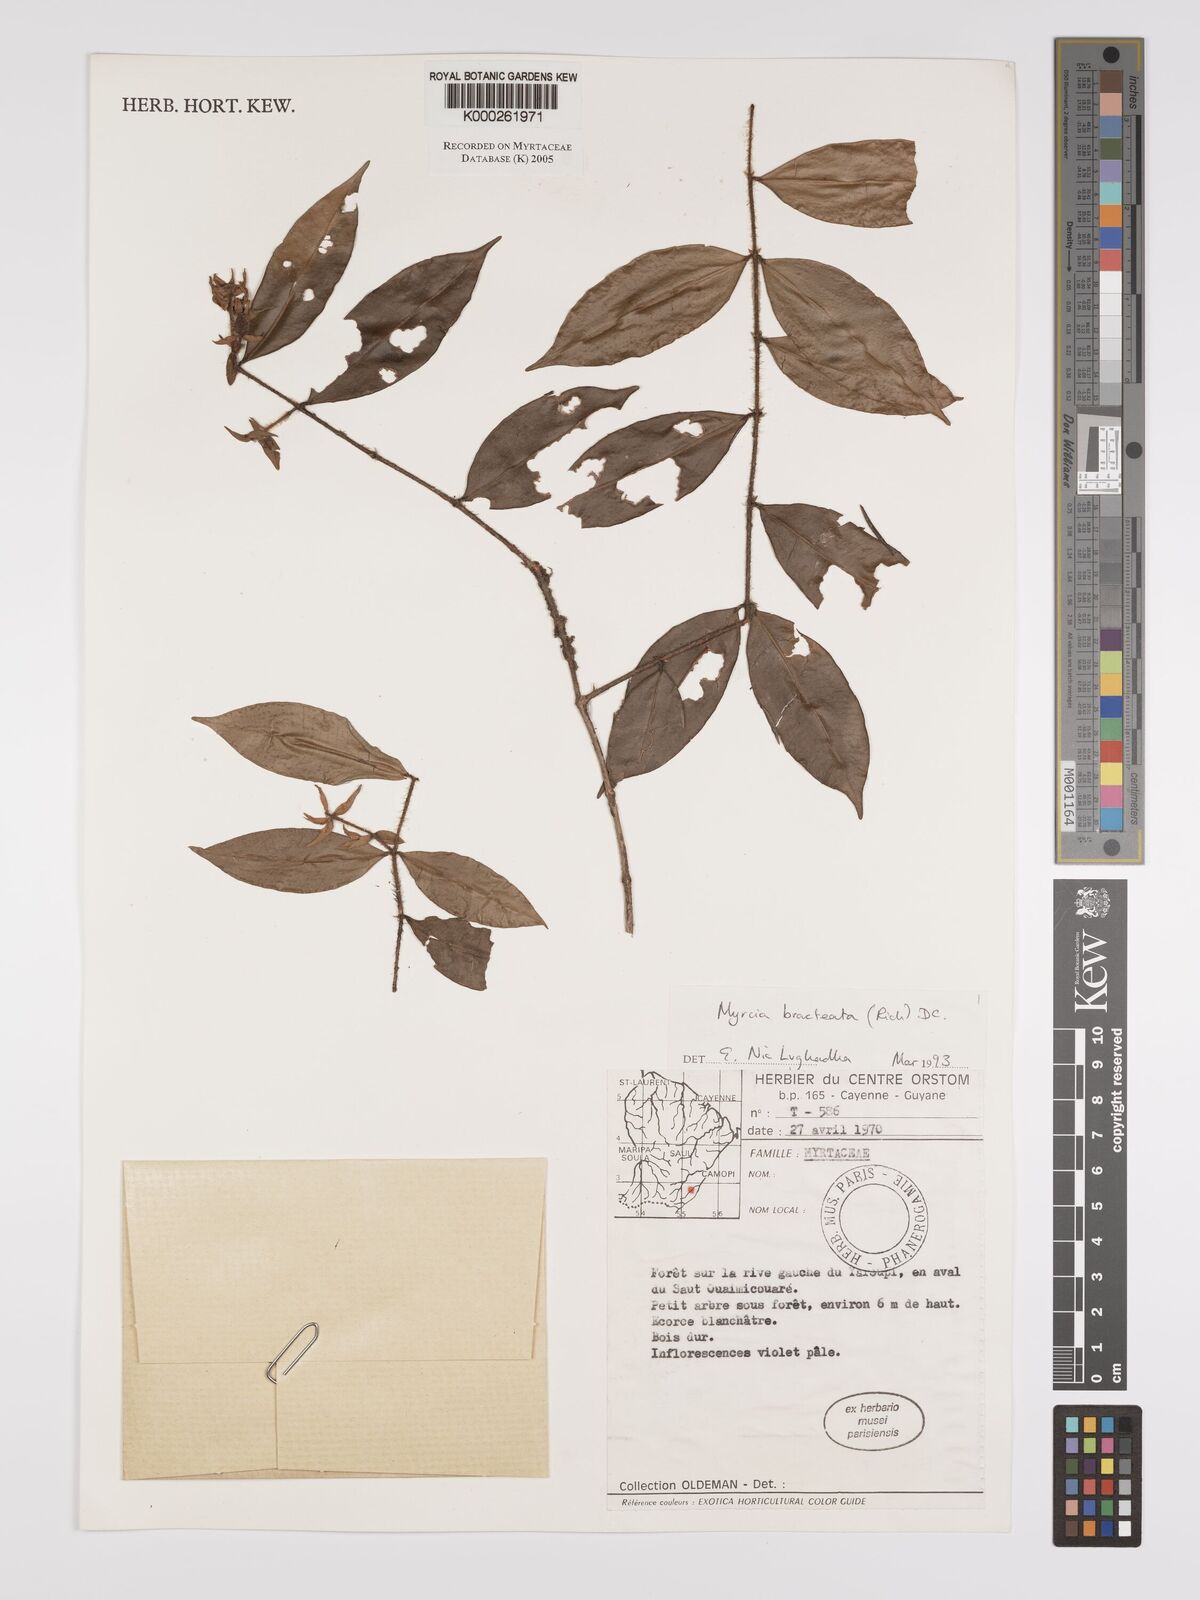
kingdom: Plantae
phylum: Tracheophyta
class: Magnoliopsida
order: Myrtales
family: Myrtaceae
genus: Myrcia
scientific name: Myrcia bracteata
